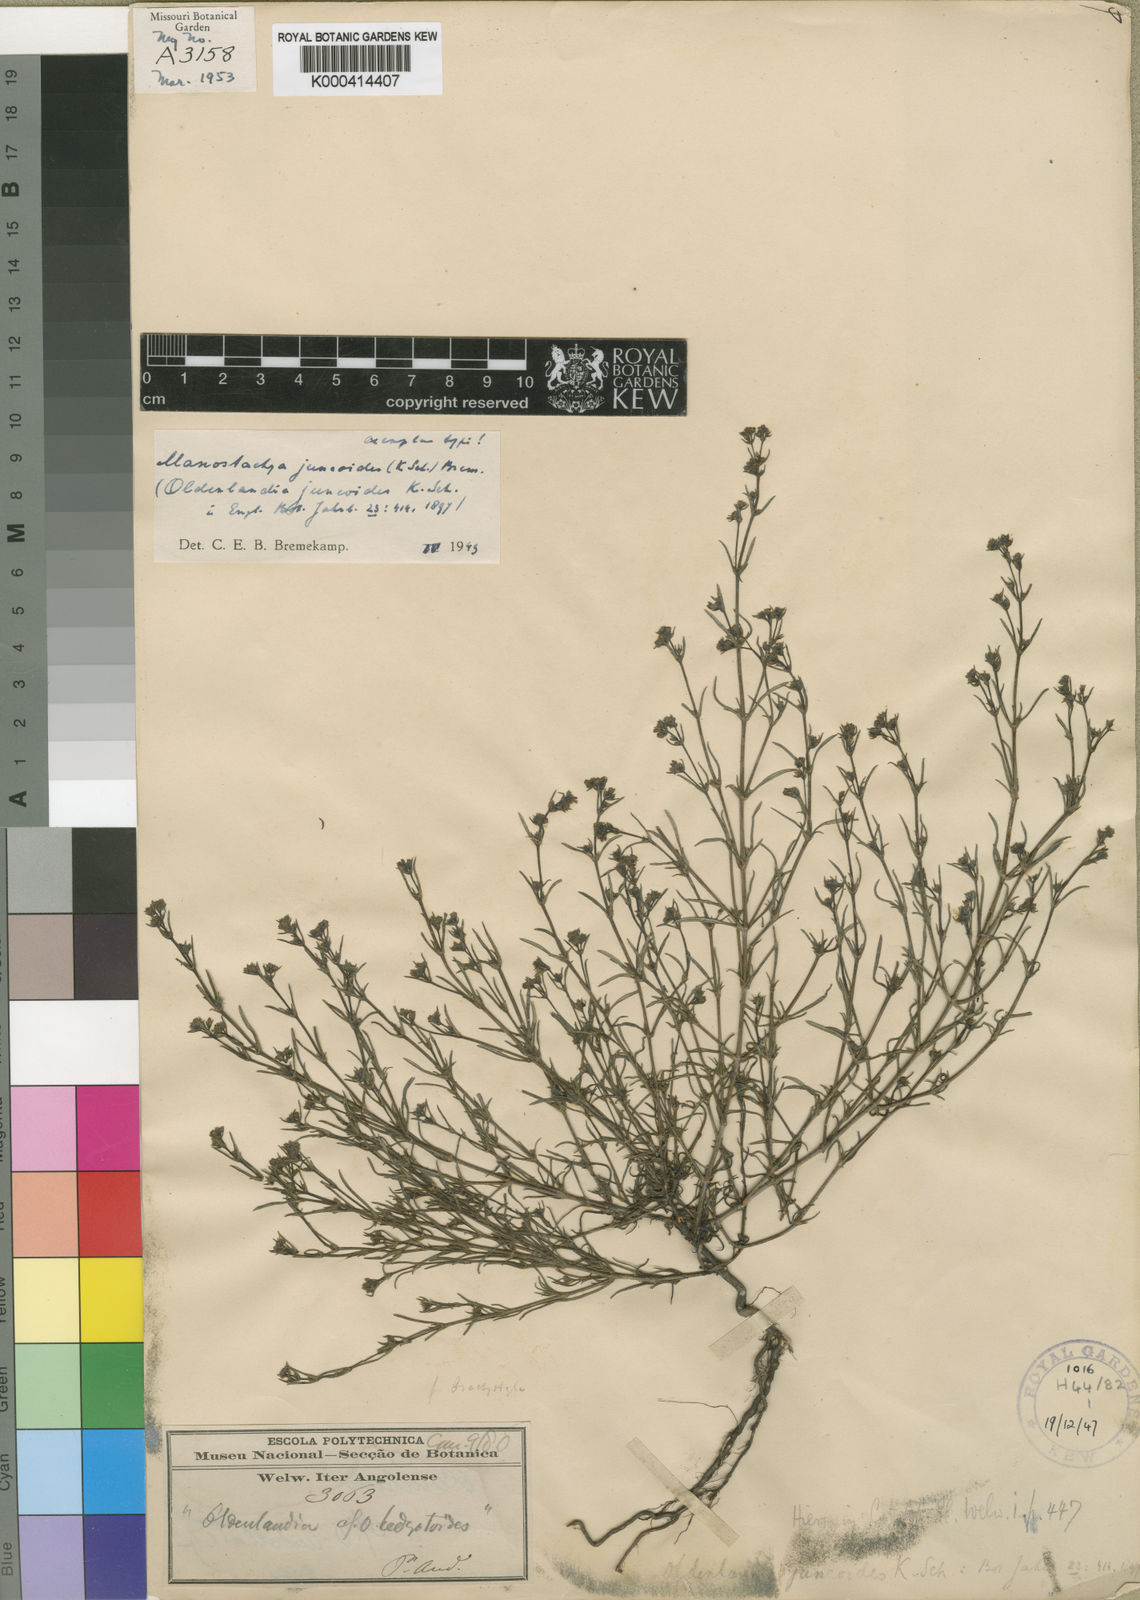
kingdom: Plantae
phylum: Tracheophyta
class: Magnoliopsida
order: Gentianales
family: Rubiaceae
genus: Manostachya
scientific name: Manostachya juncoides
